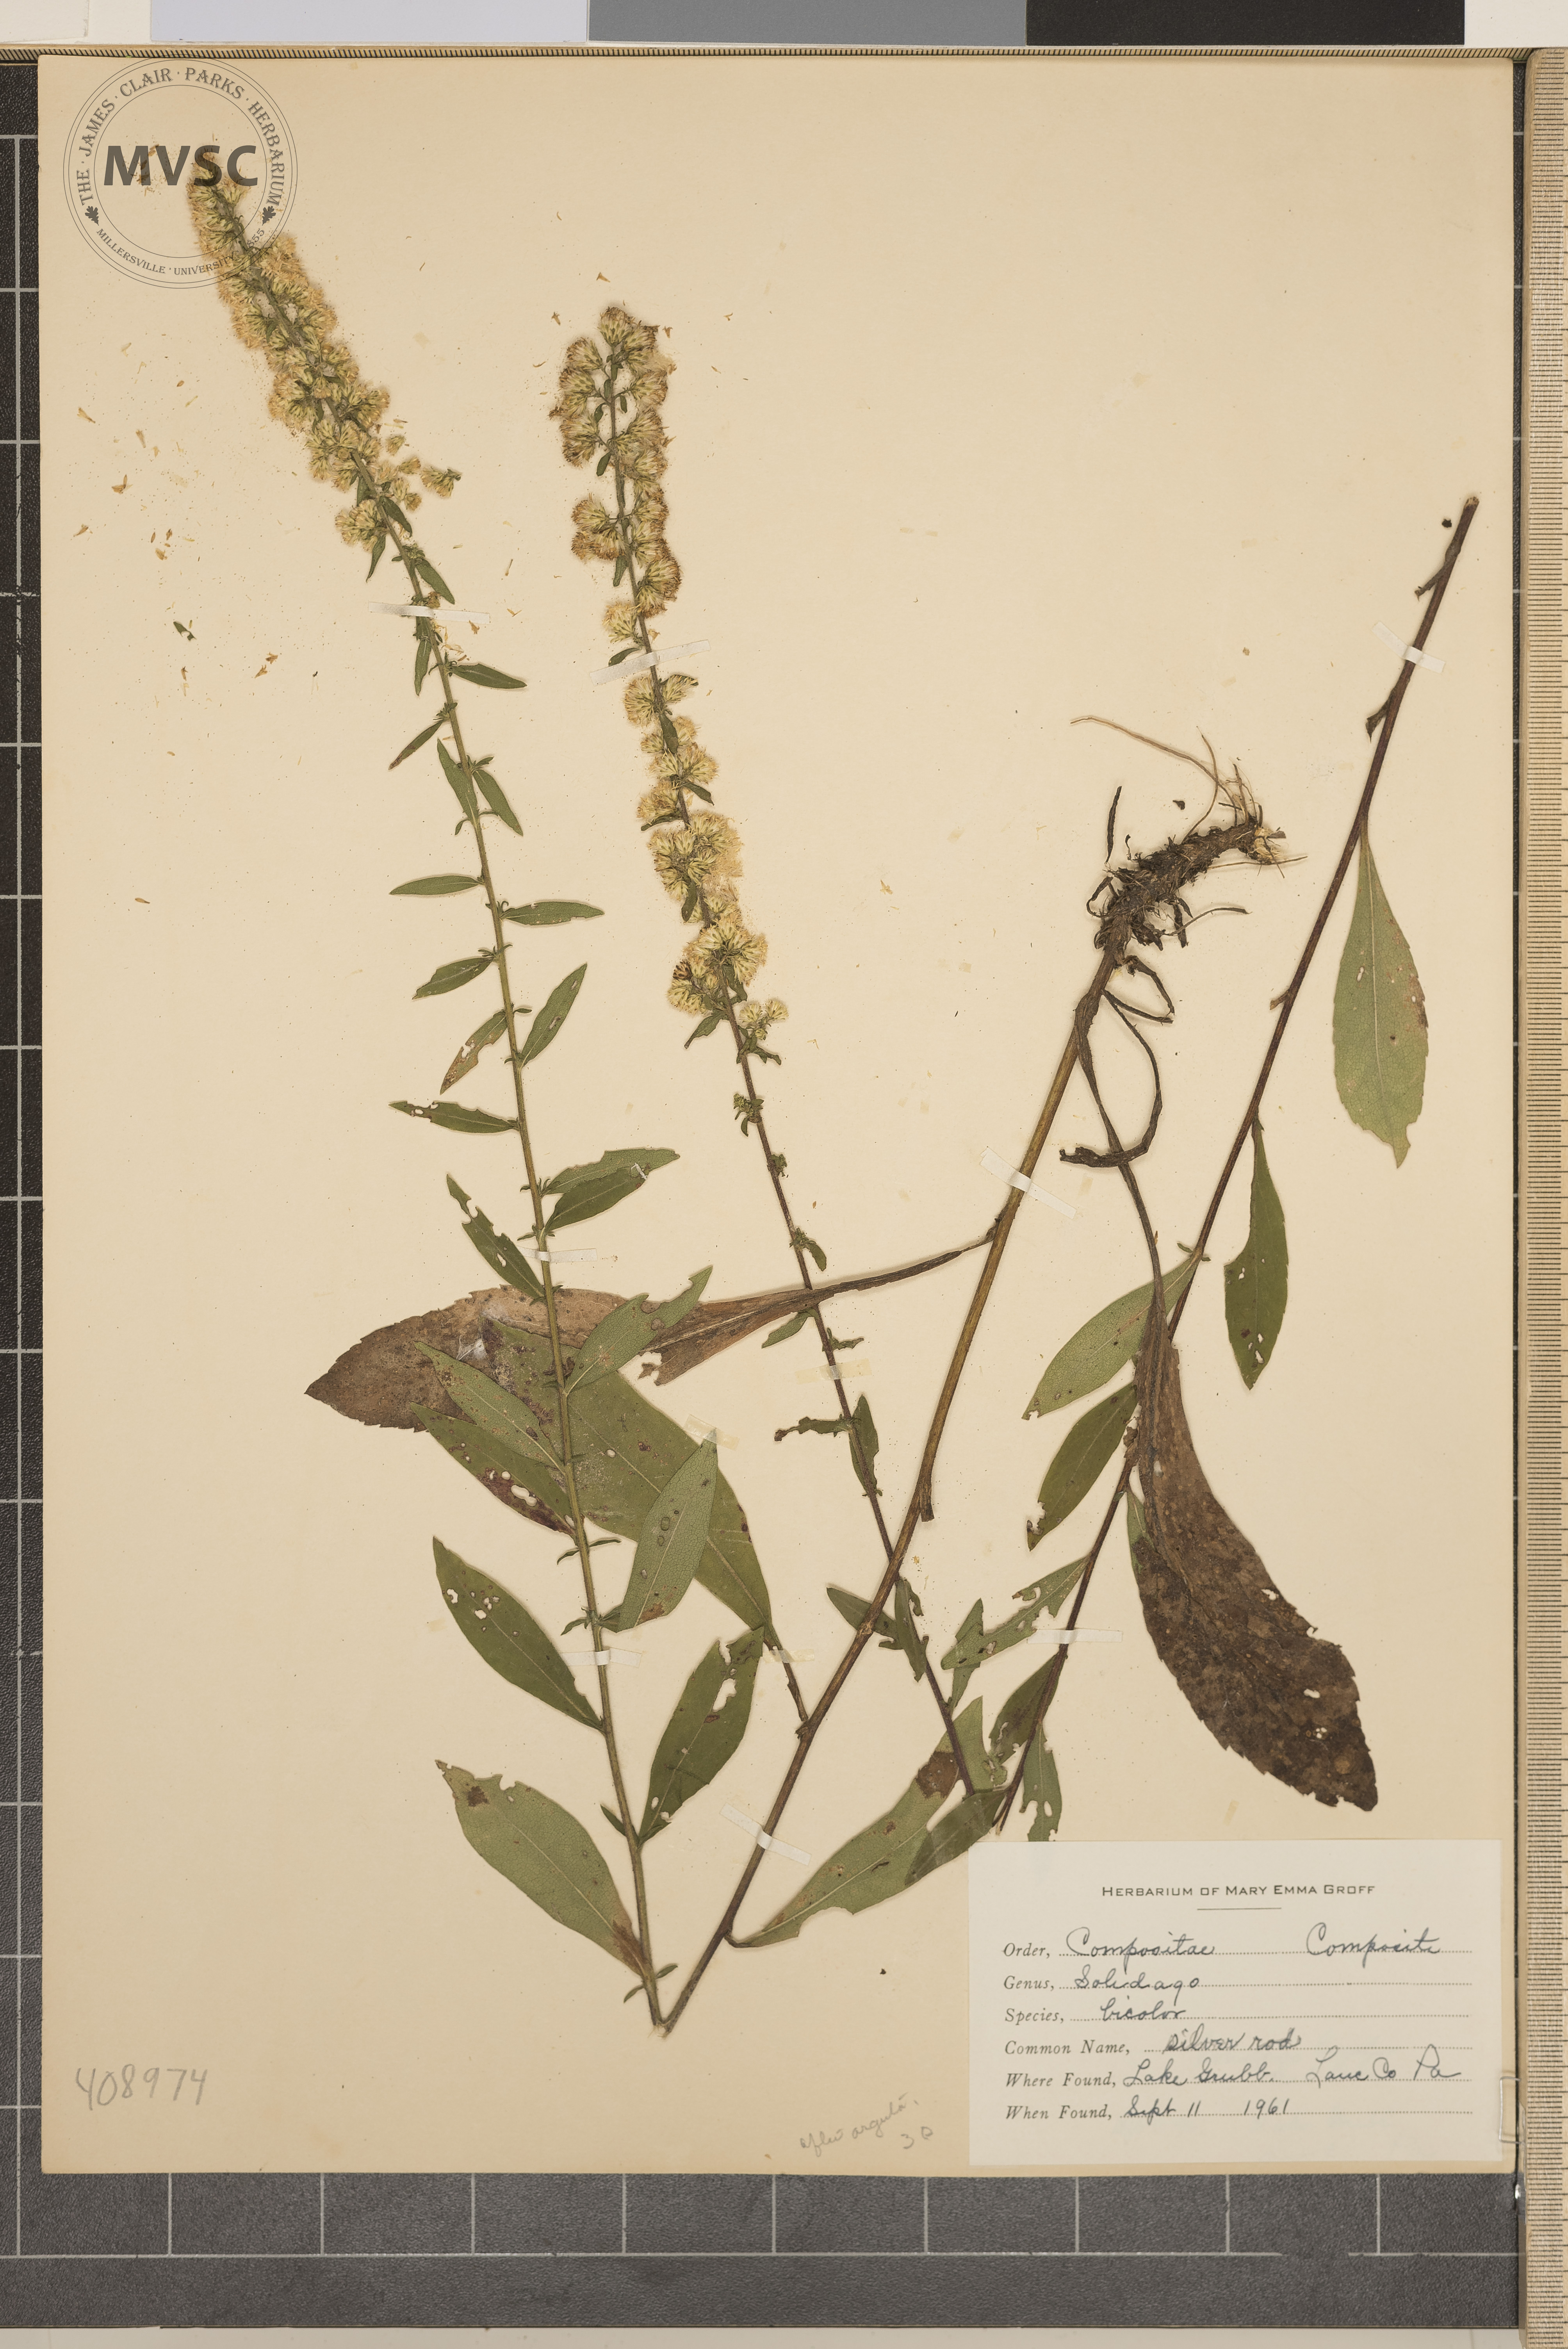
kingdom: Plantae
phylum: Tracheophyta
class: Magnoliopsida
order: Asterales
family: Asteraceae
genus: Solidago
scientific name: Solidago bicolor
